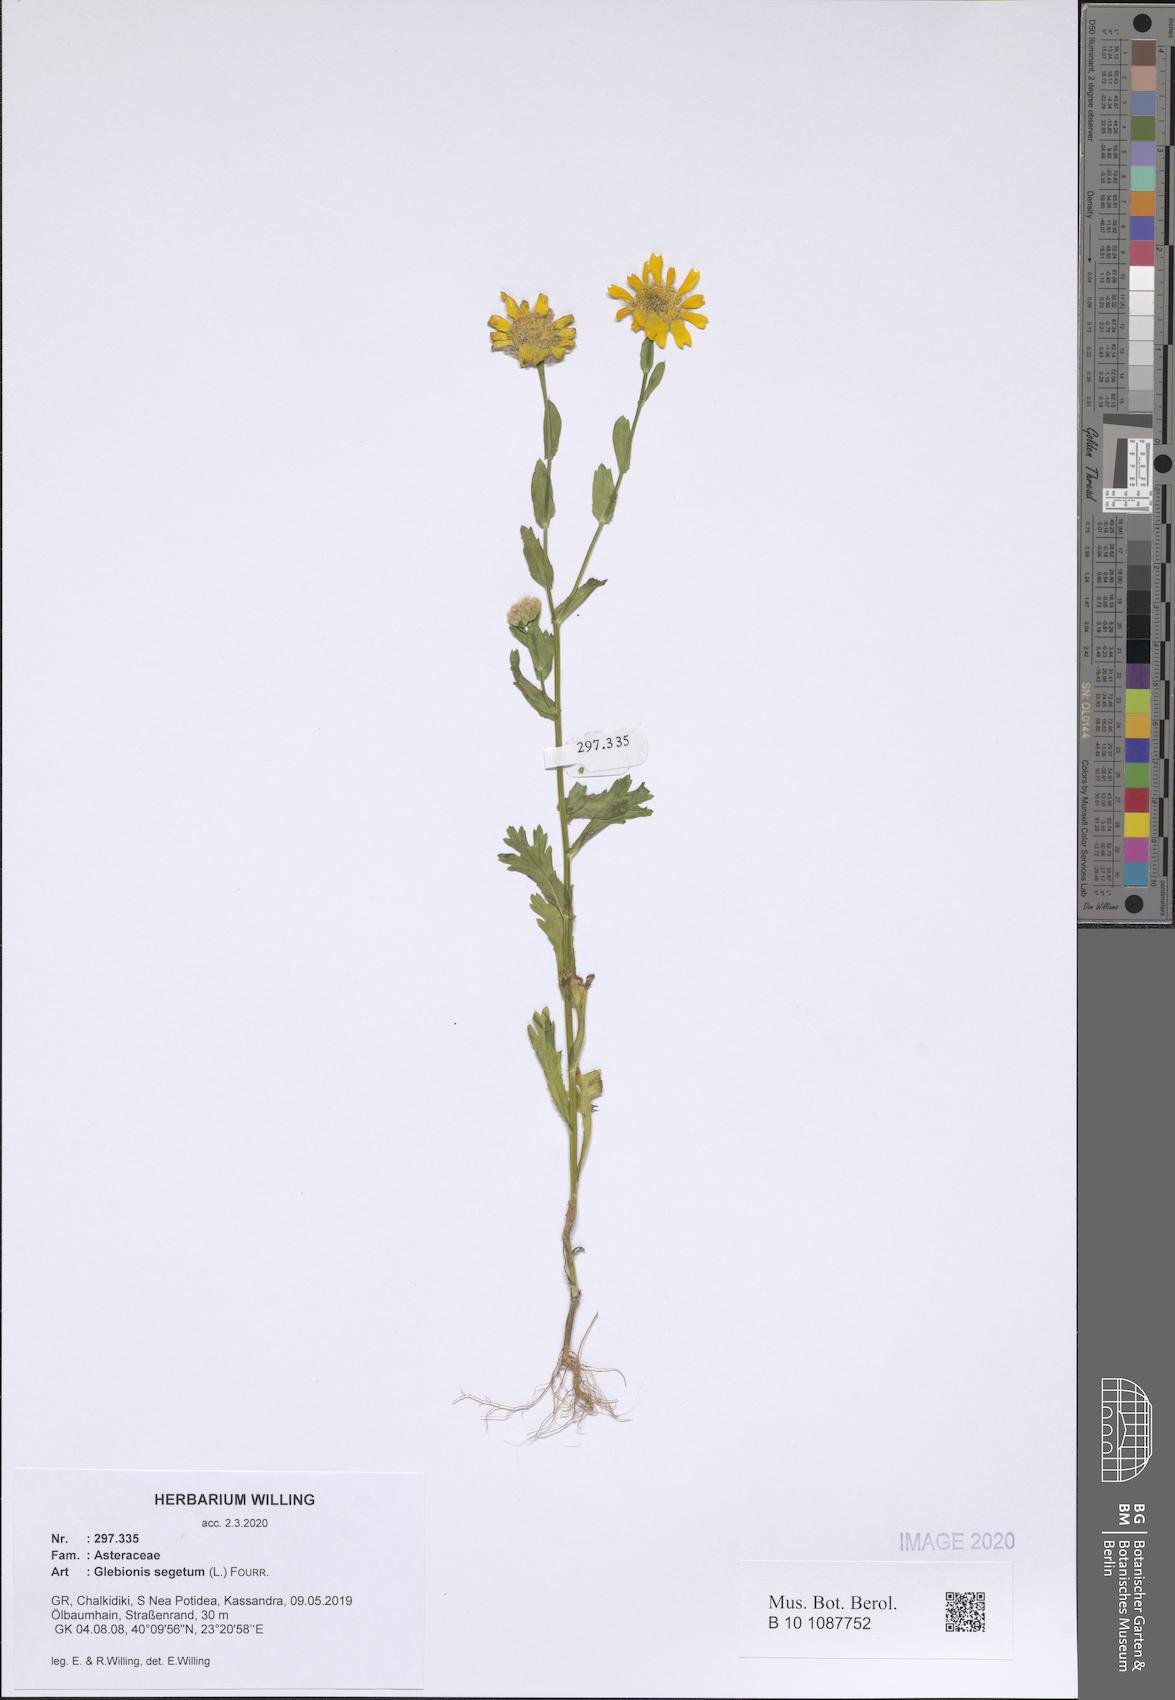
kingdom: Plantae
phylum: Tracheophyta
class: Magnoliopsida
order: Asterales
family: Asteraceae
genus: Glebionis
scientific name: Glebionis segetum
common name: Corndaisy
